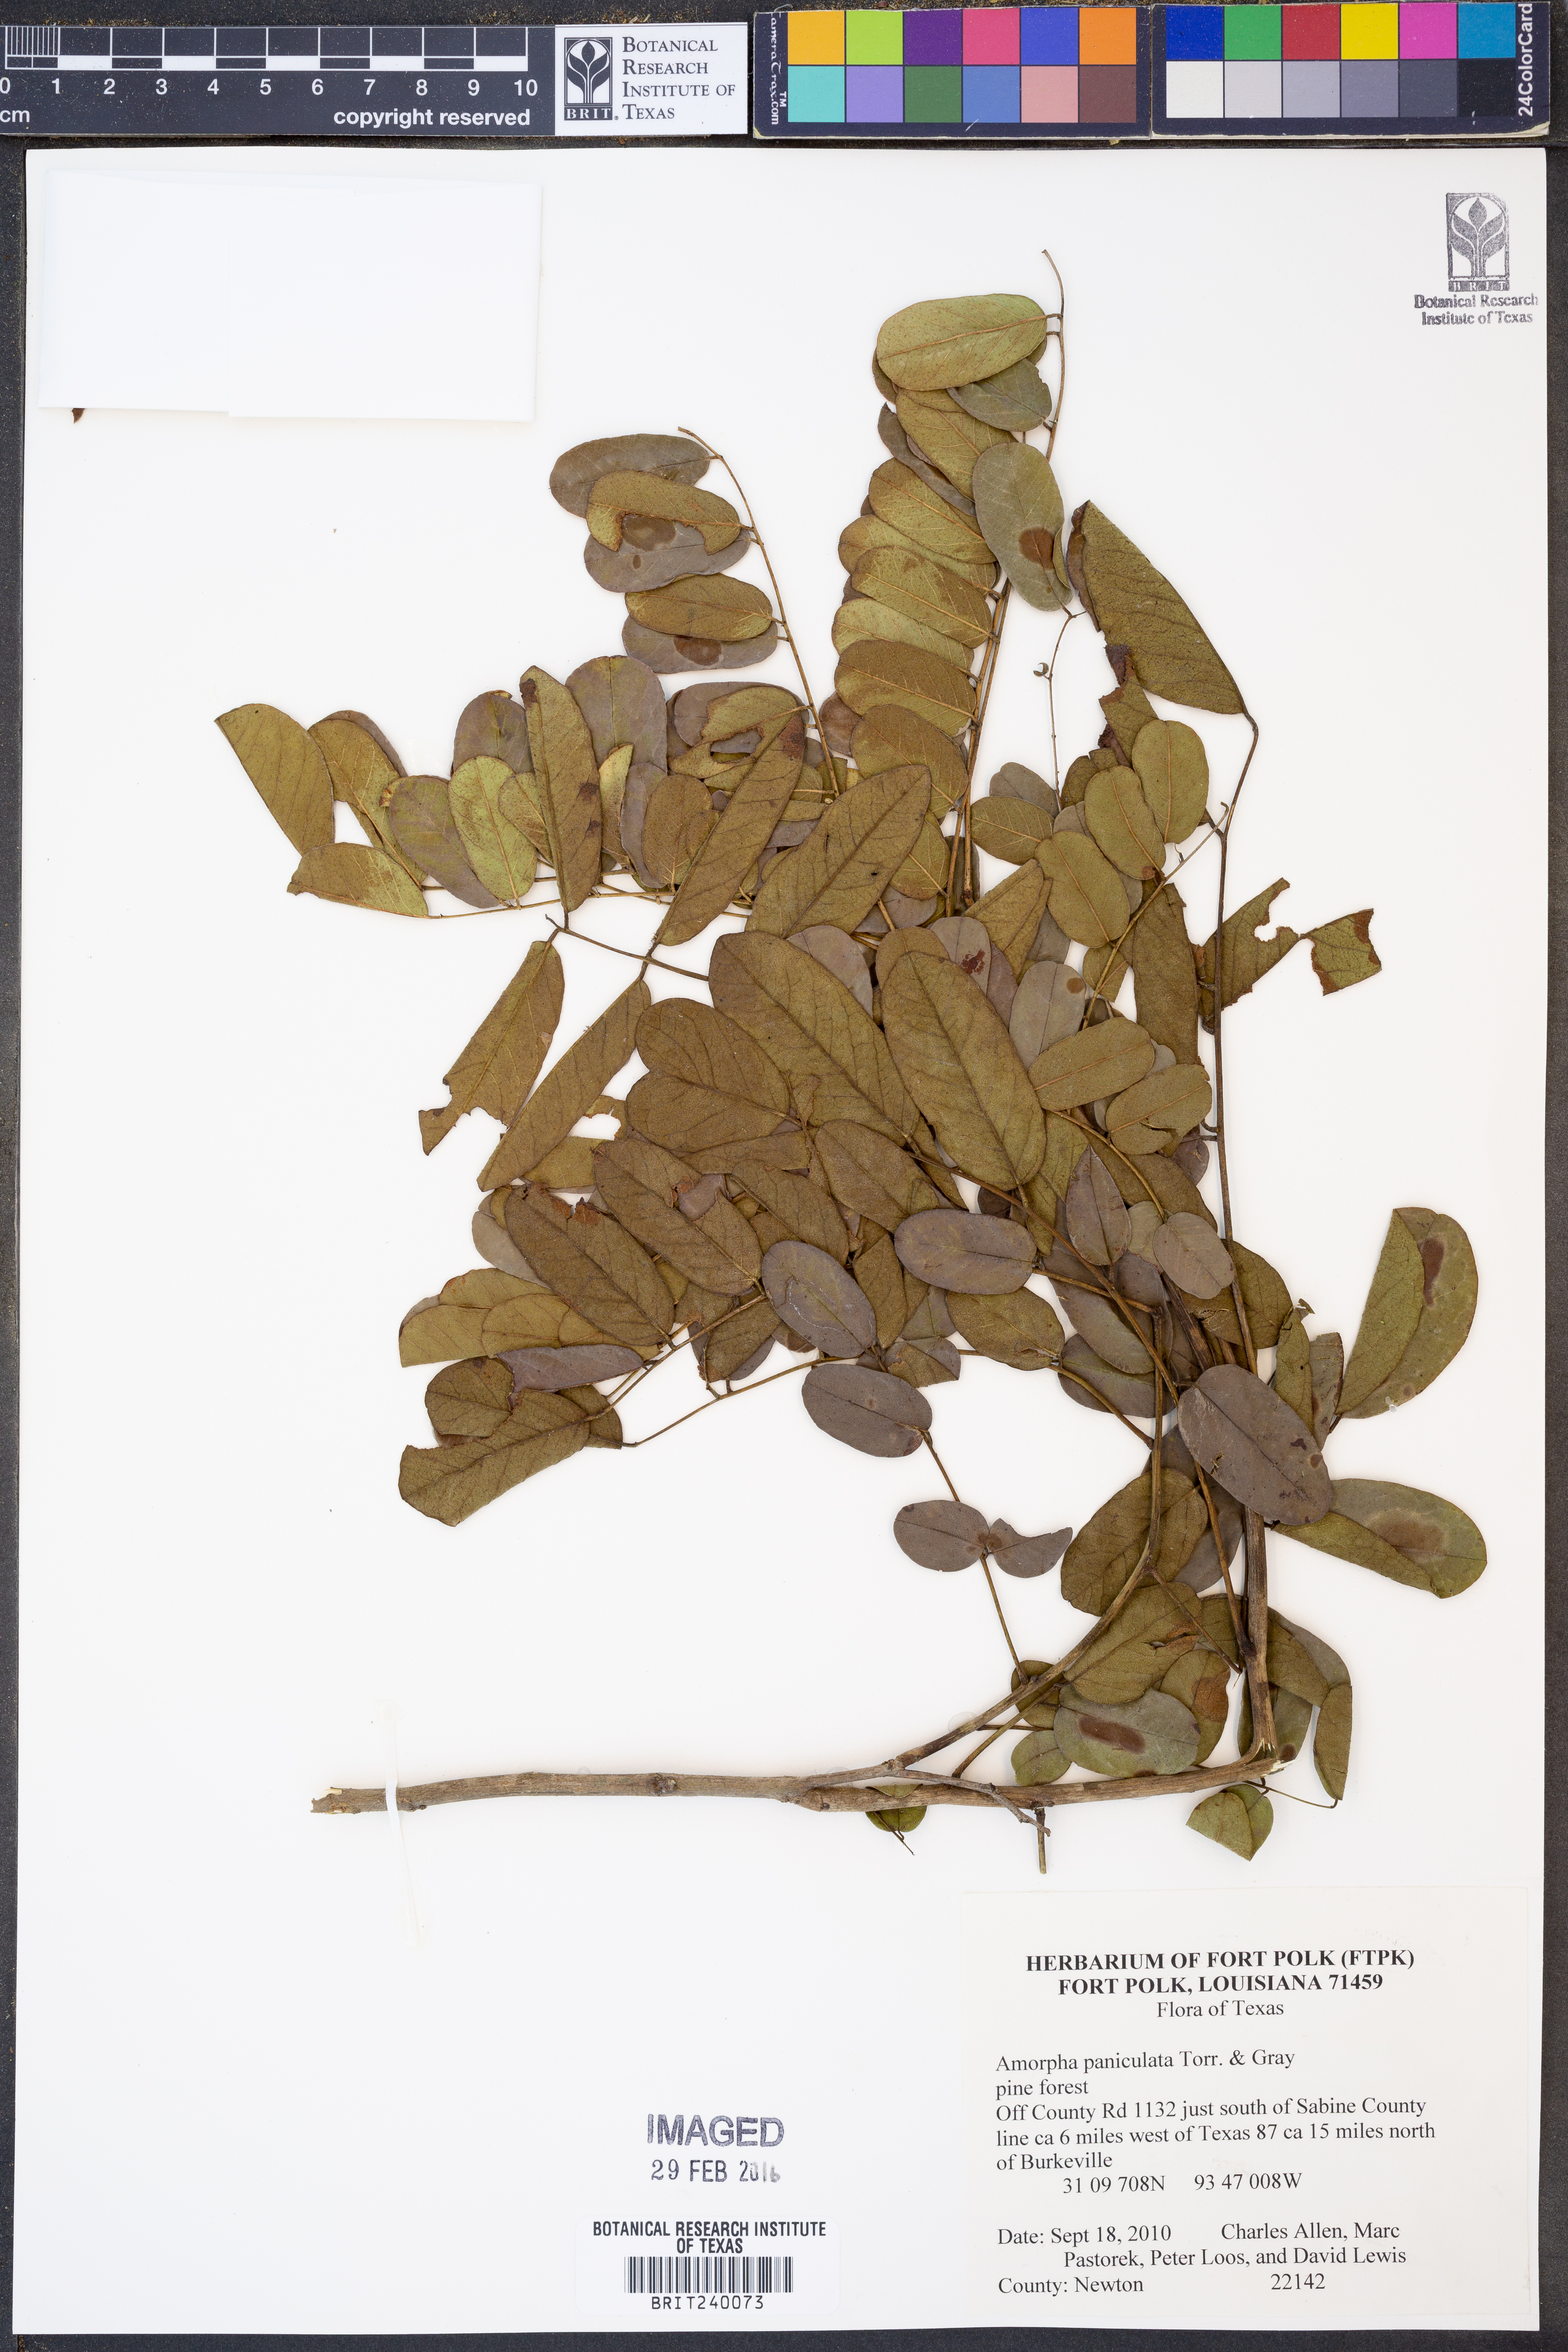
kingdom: Plantae
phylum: Tracheophyta
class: Magnoliopsida
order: Fabales
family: Fabaceae
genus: Amorpha
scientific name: Amorpha paniculata
